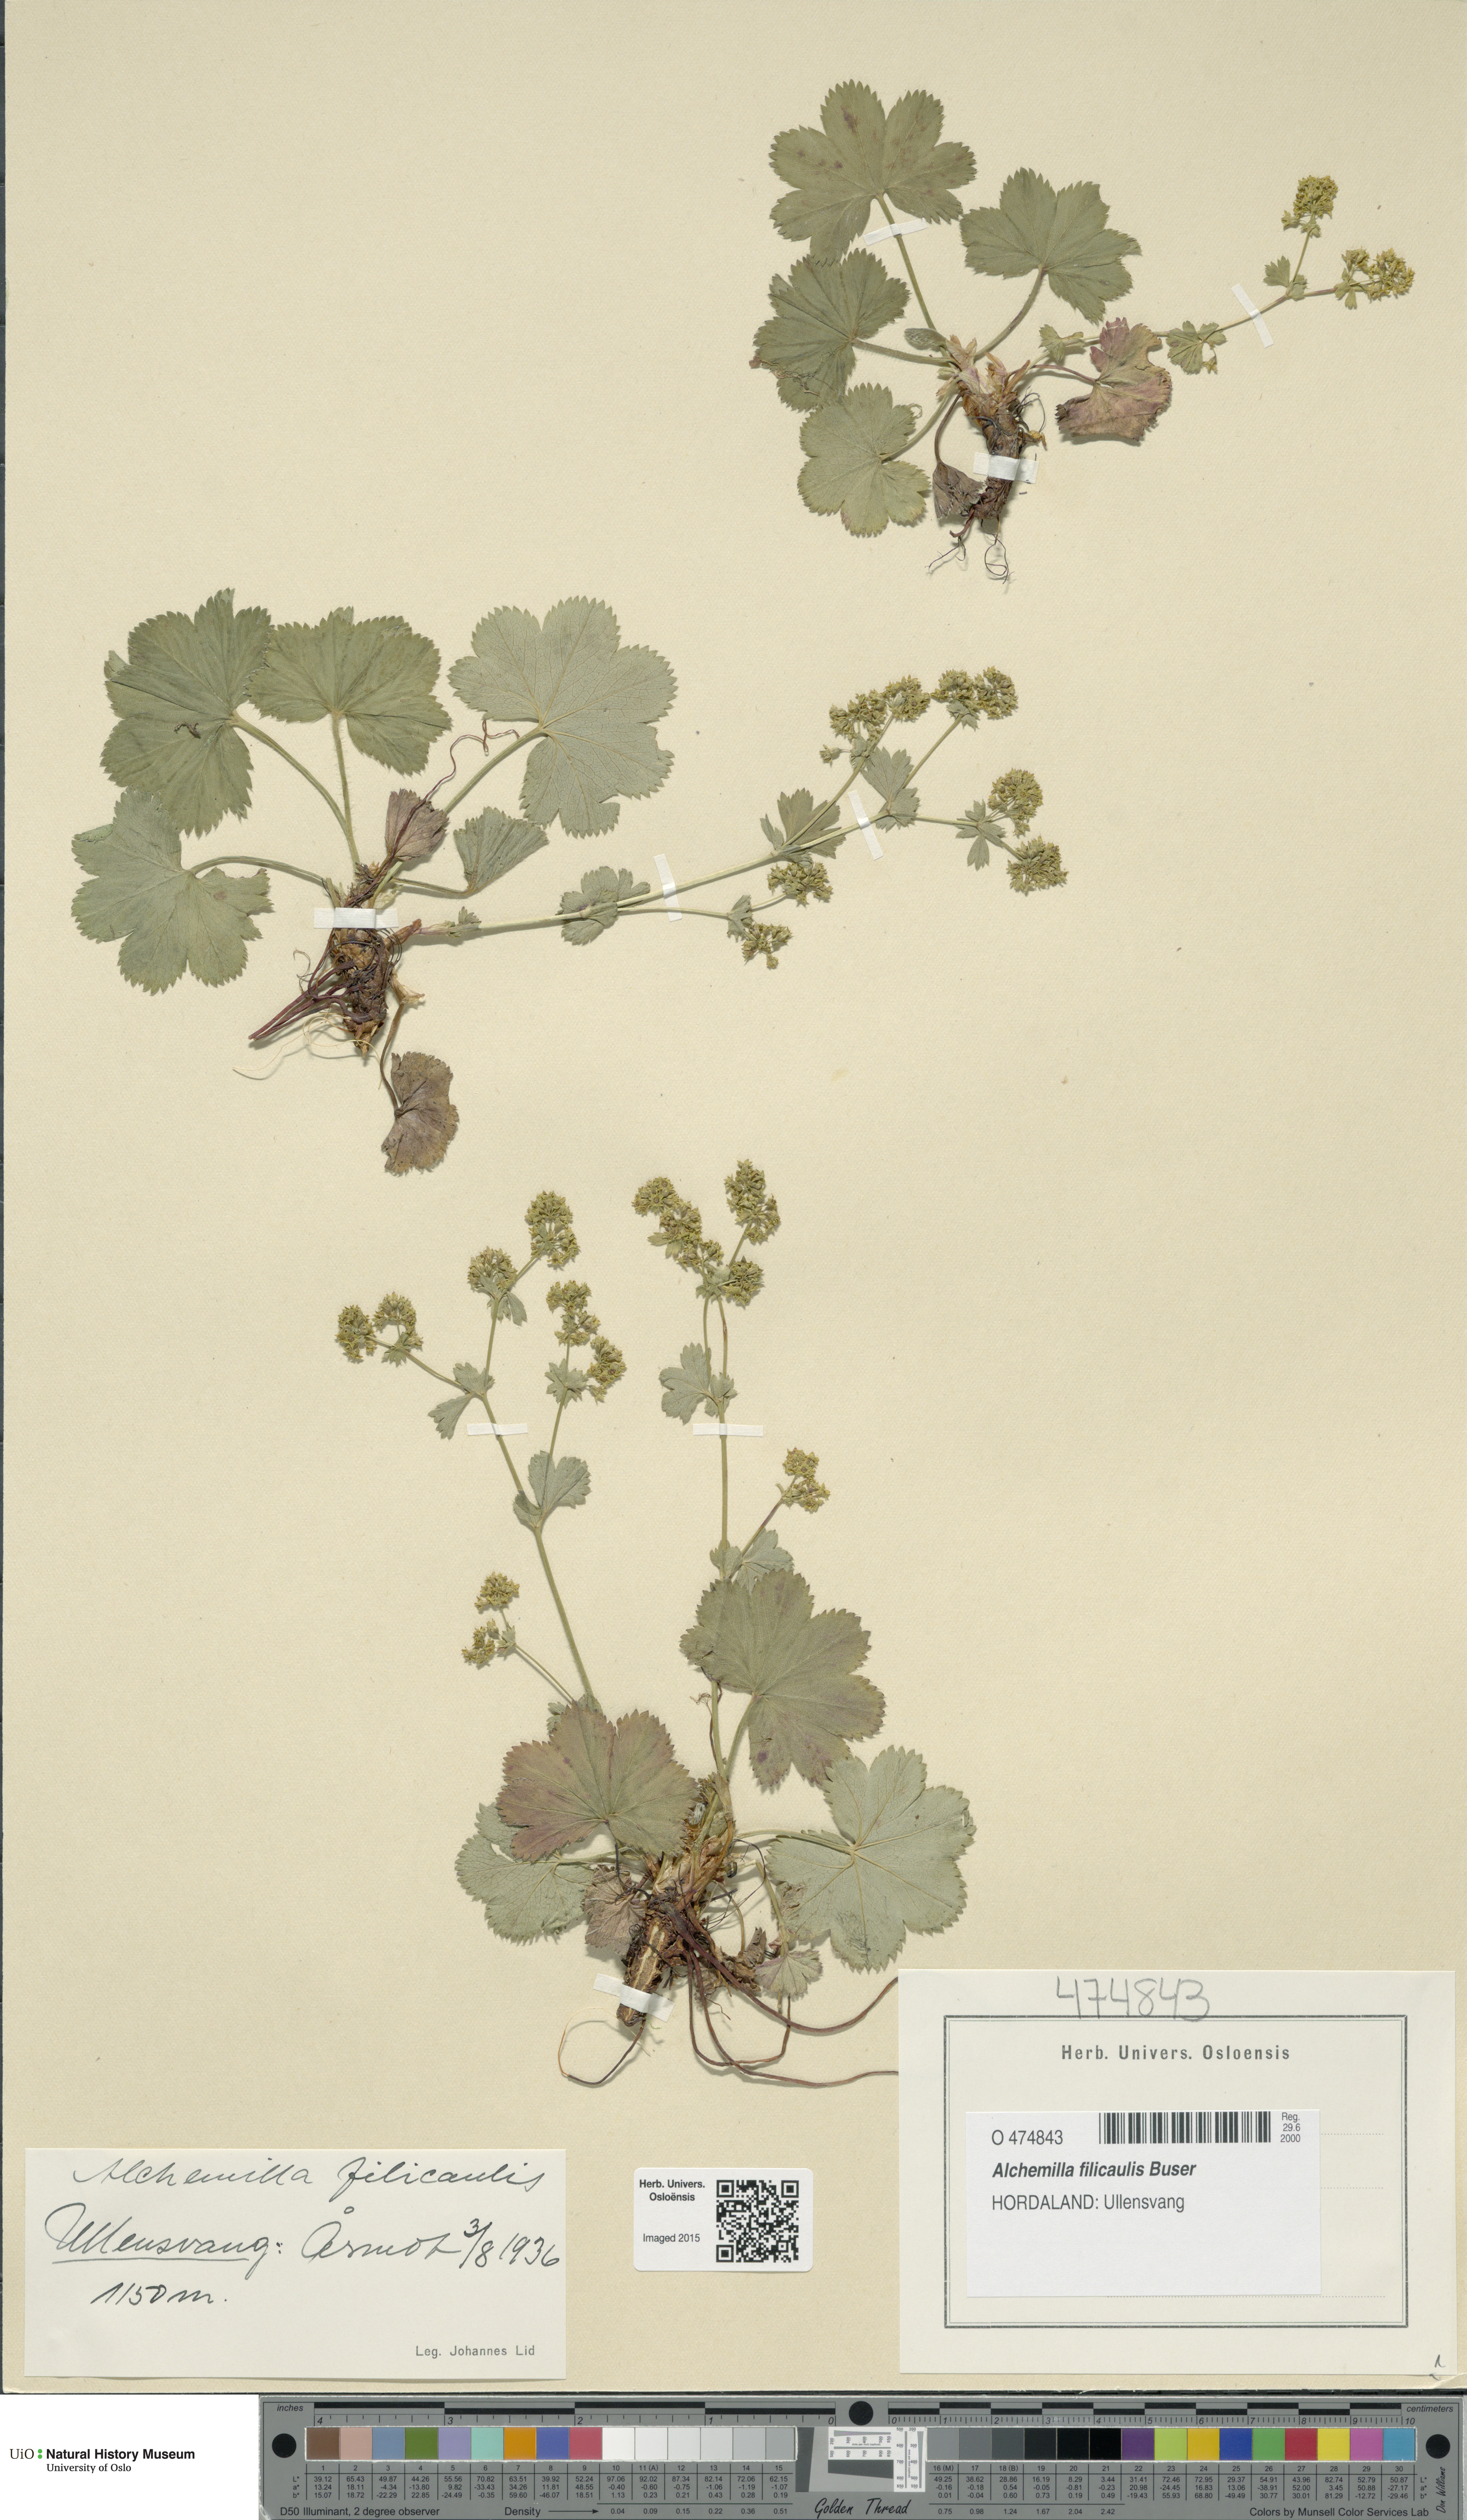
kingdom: Plantae
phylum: Tracheophyta
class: Magnoliopsida
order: Rosales
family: Rosaceae
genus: Alchemilla
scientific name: Alchemilla filicaulis
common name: Hairy lady's-mantle
